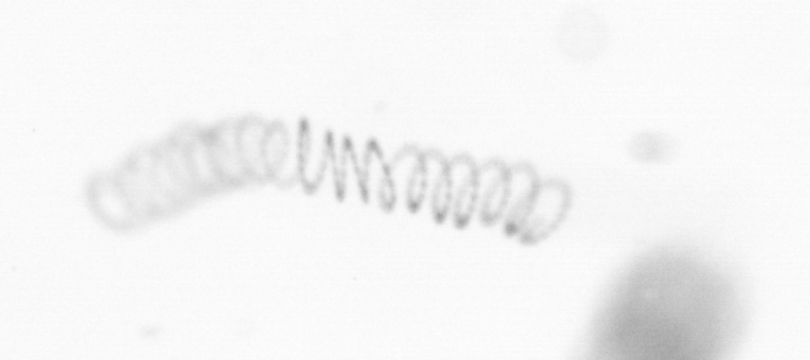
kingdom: Chromista
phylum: Ochrophyta
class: Bacillariophyceae
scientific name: Bacillariophyceae
